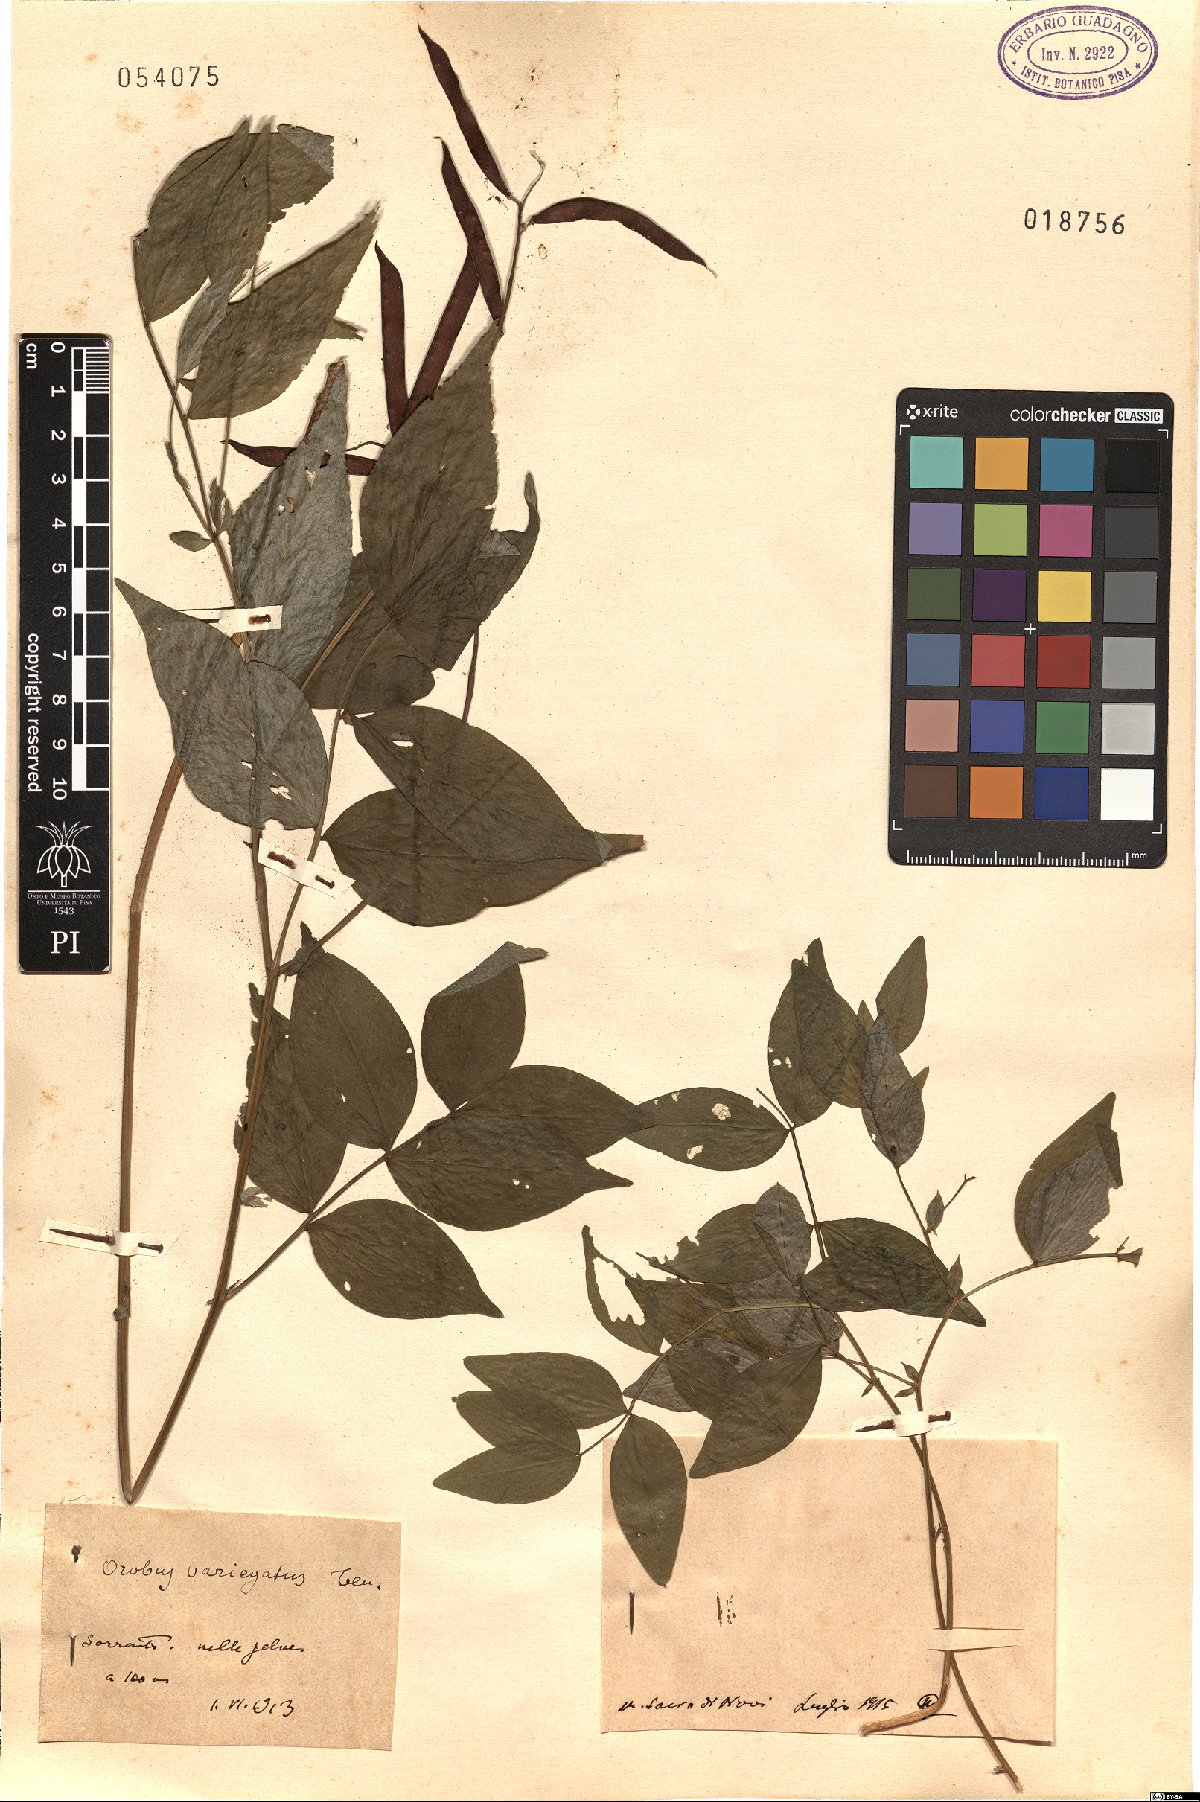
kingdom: Plantae
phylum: Tracheophyta
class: Magnoliopsida
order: Fabales
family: Fabaceae
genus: Lathyrus
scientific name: Lathyrus venetus
